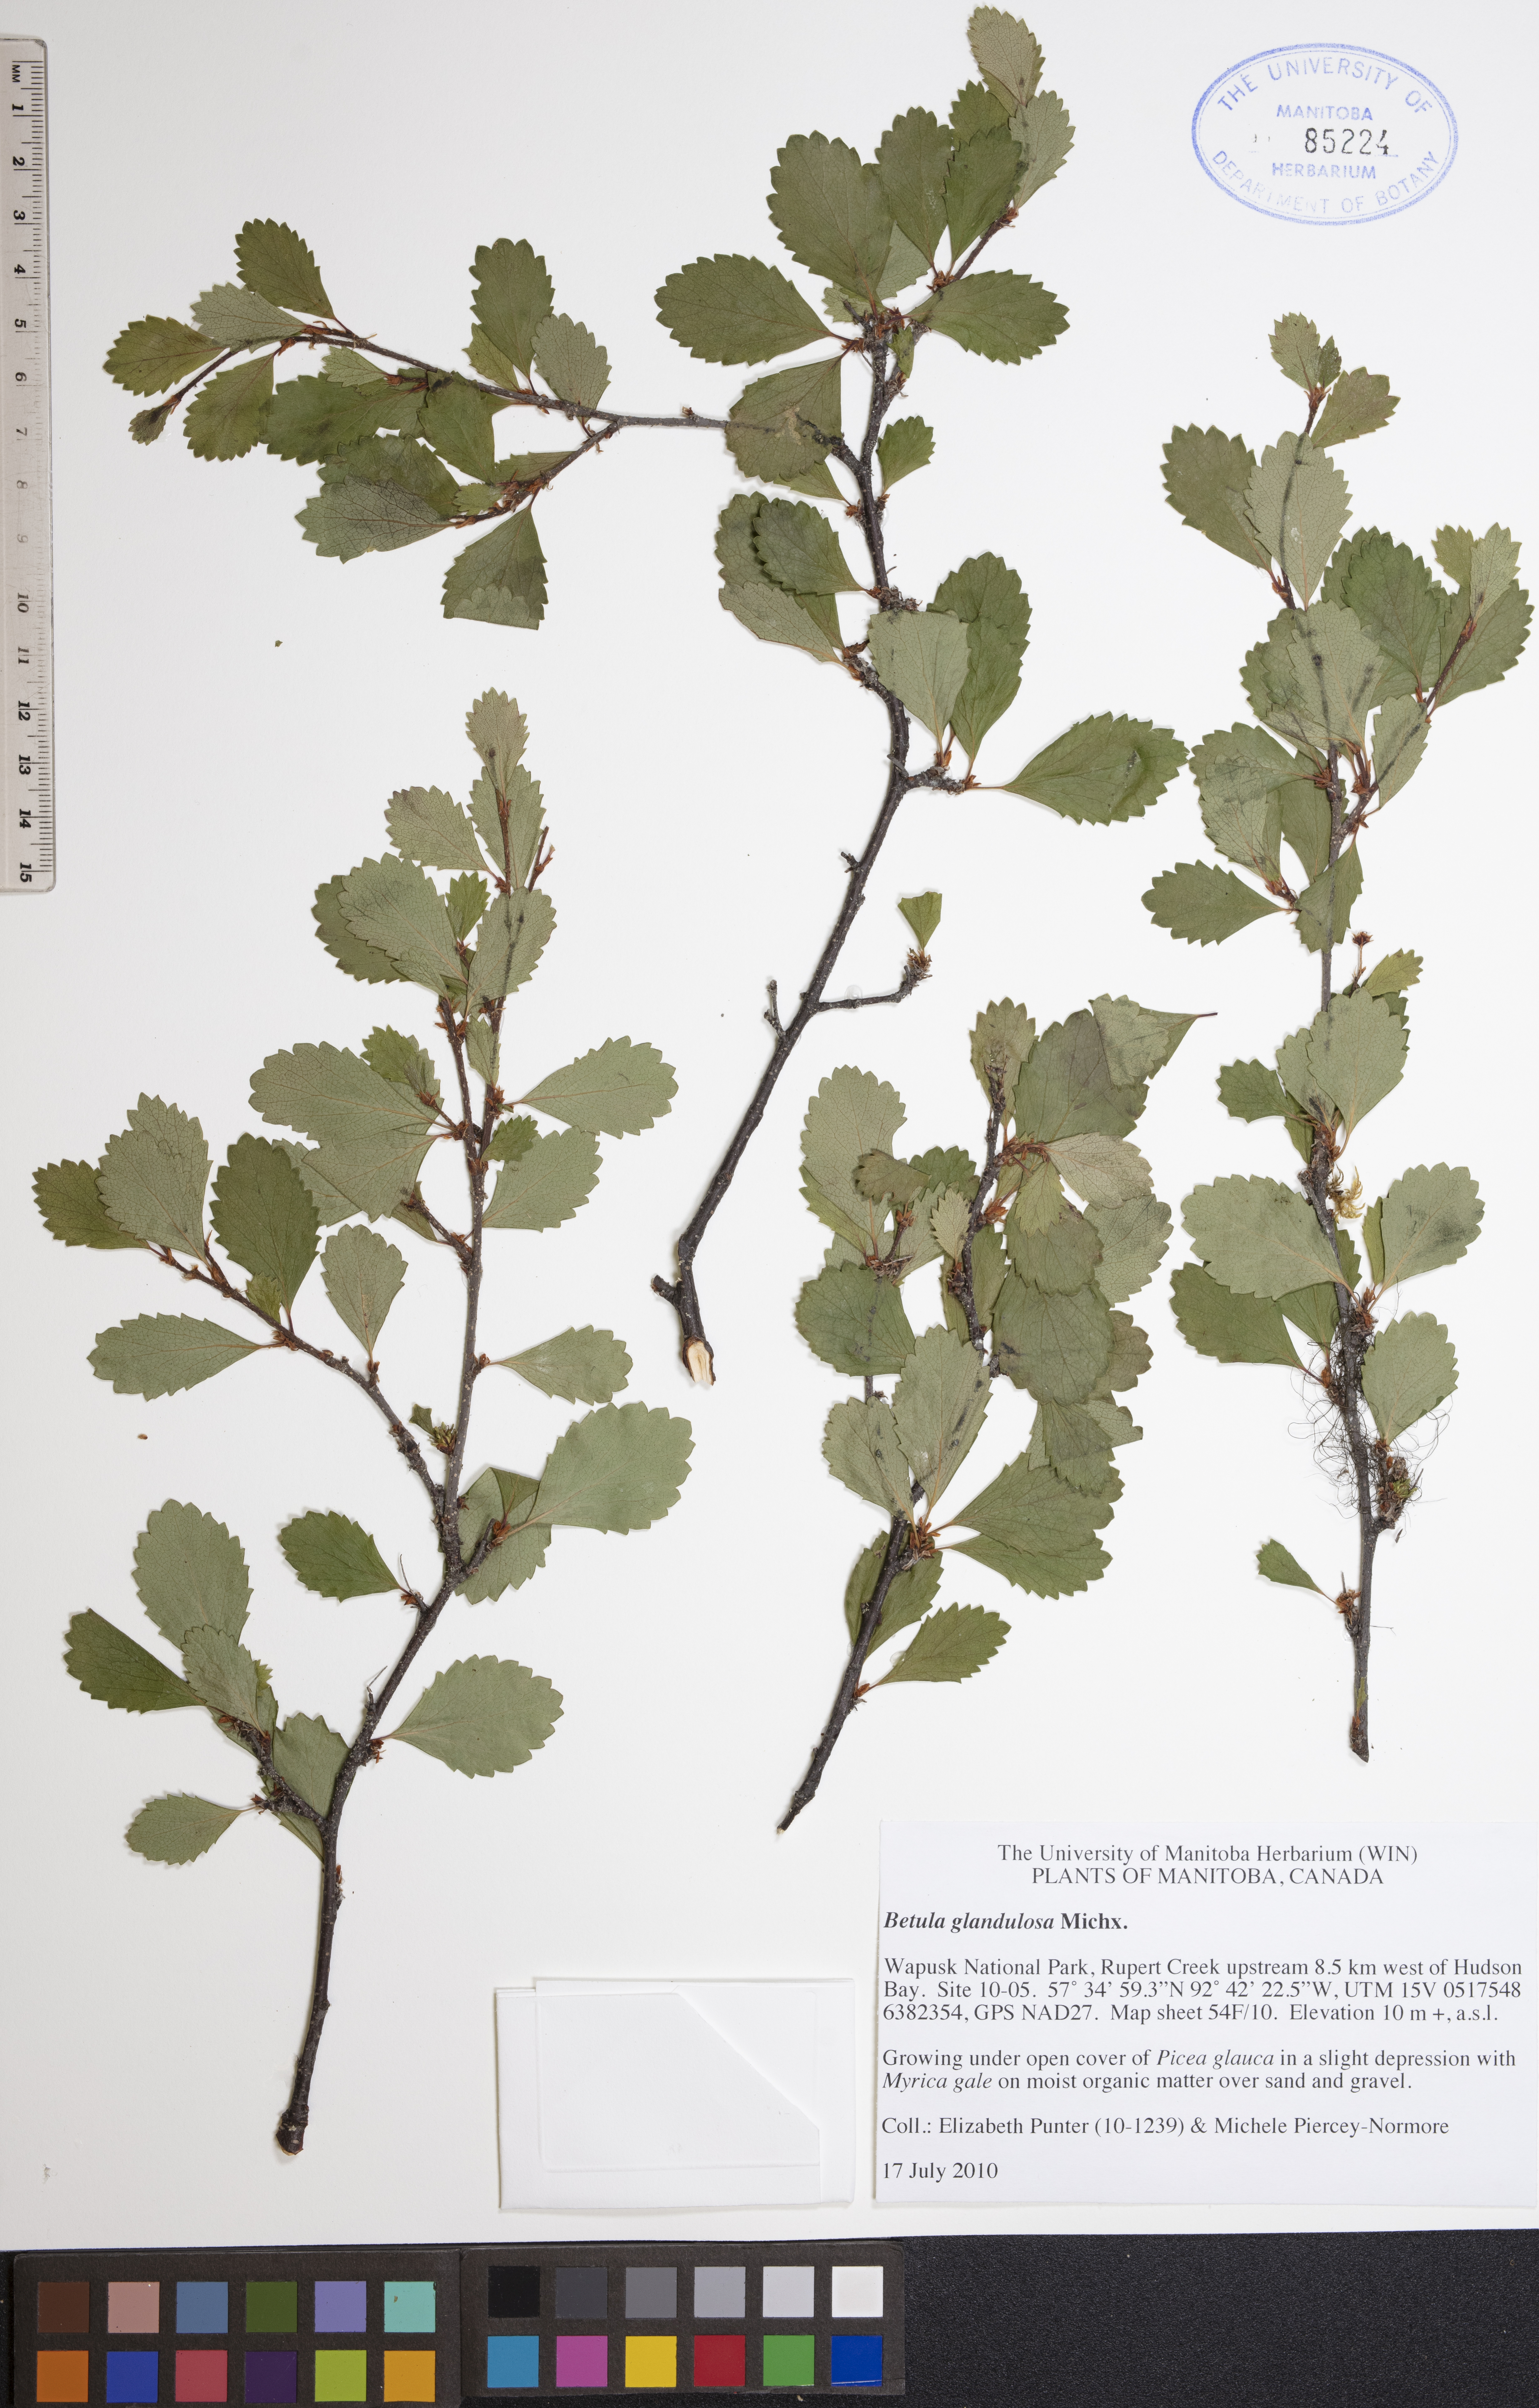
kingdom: Plantae
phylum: Tracheophyta
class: Magnoliopsida
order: Fagales
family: Betulaceae
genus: Betula
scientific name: Betula glandulosa
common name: Dwarf birch
